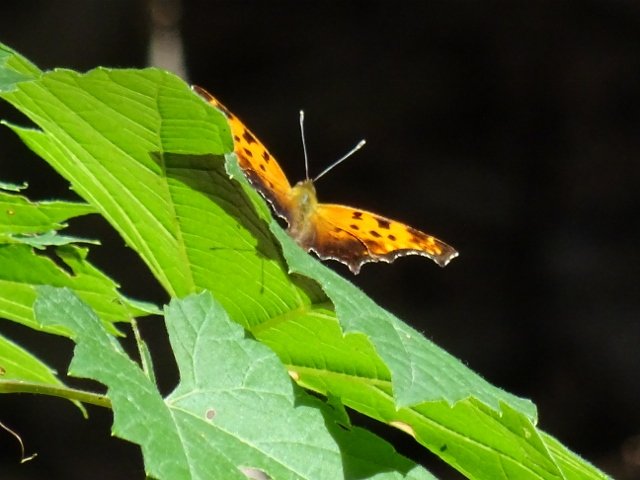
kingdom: Animalia
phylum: Arthropoda
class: Insecta
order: Lepidoptera
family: Nymphalidae
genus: Polygonia
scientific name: Polygonia
